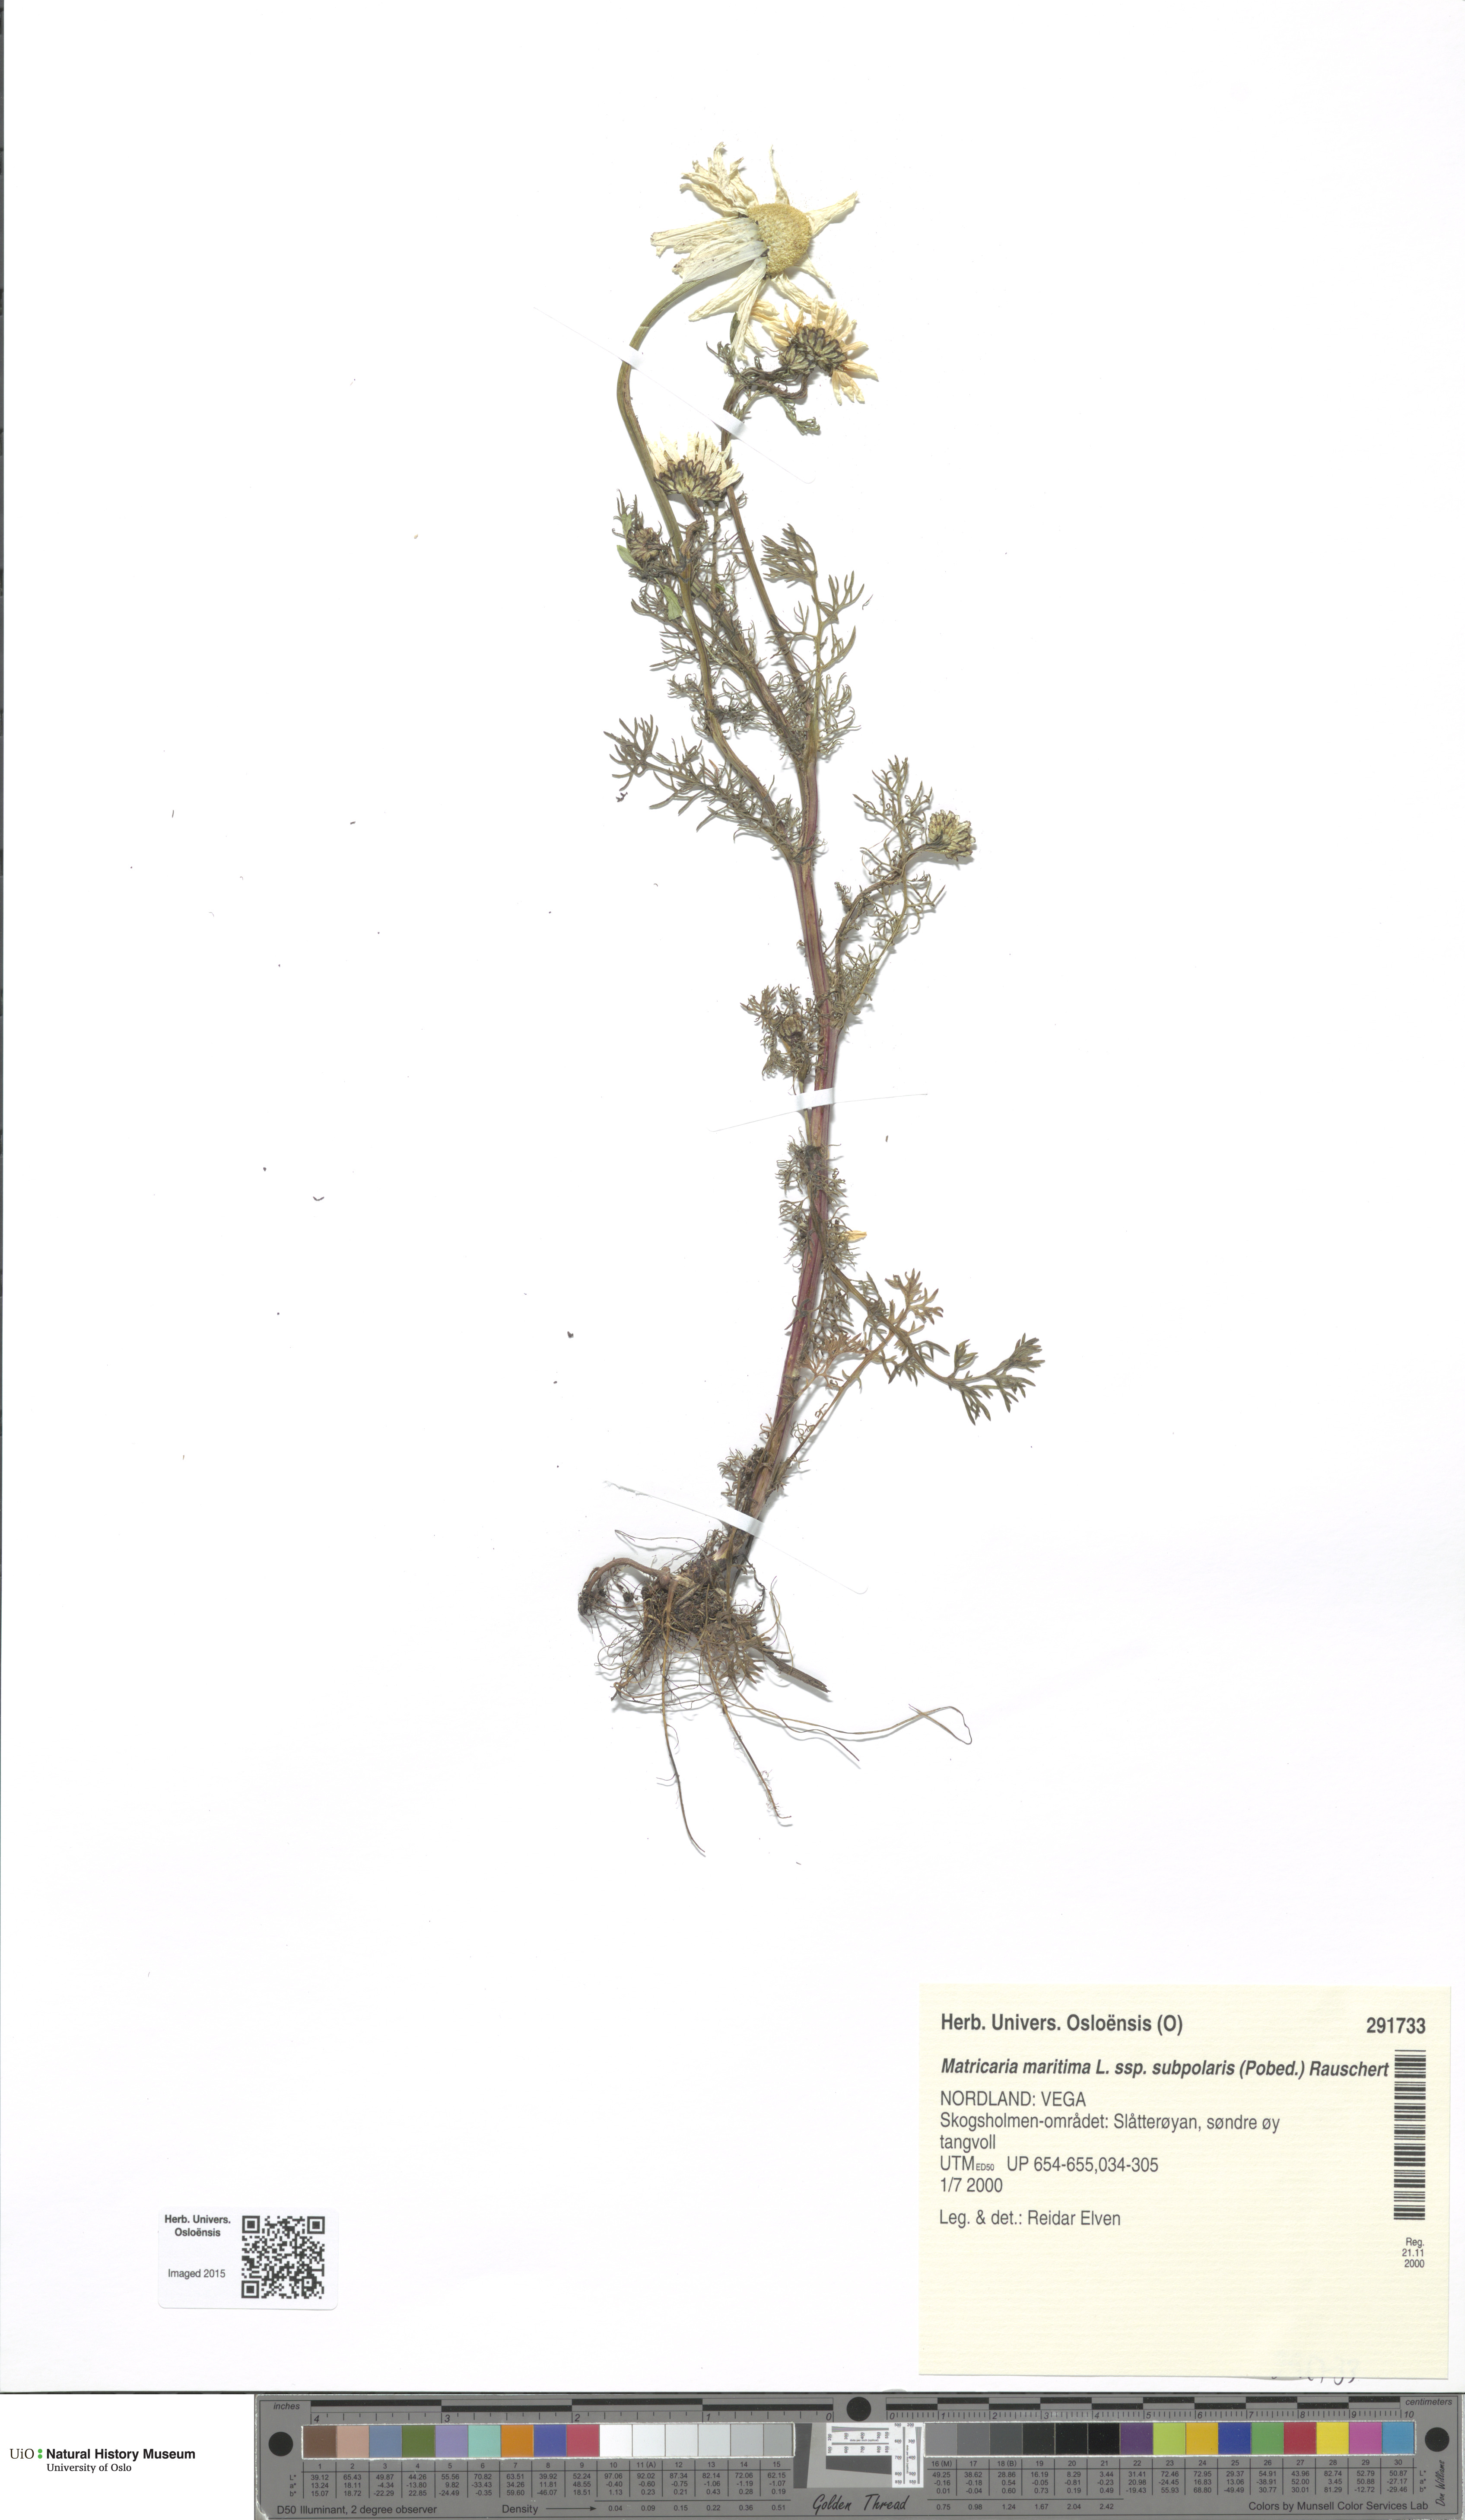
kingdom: Plantae
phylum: Tracheophyta
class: Magnoliopsida
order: Asterales
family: Asteraceae
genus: Tripleurospermum
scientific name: Tripleurospermum subpolare
